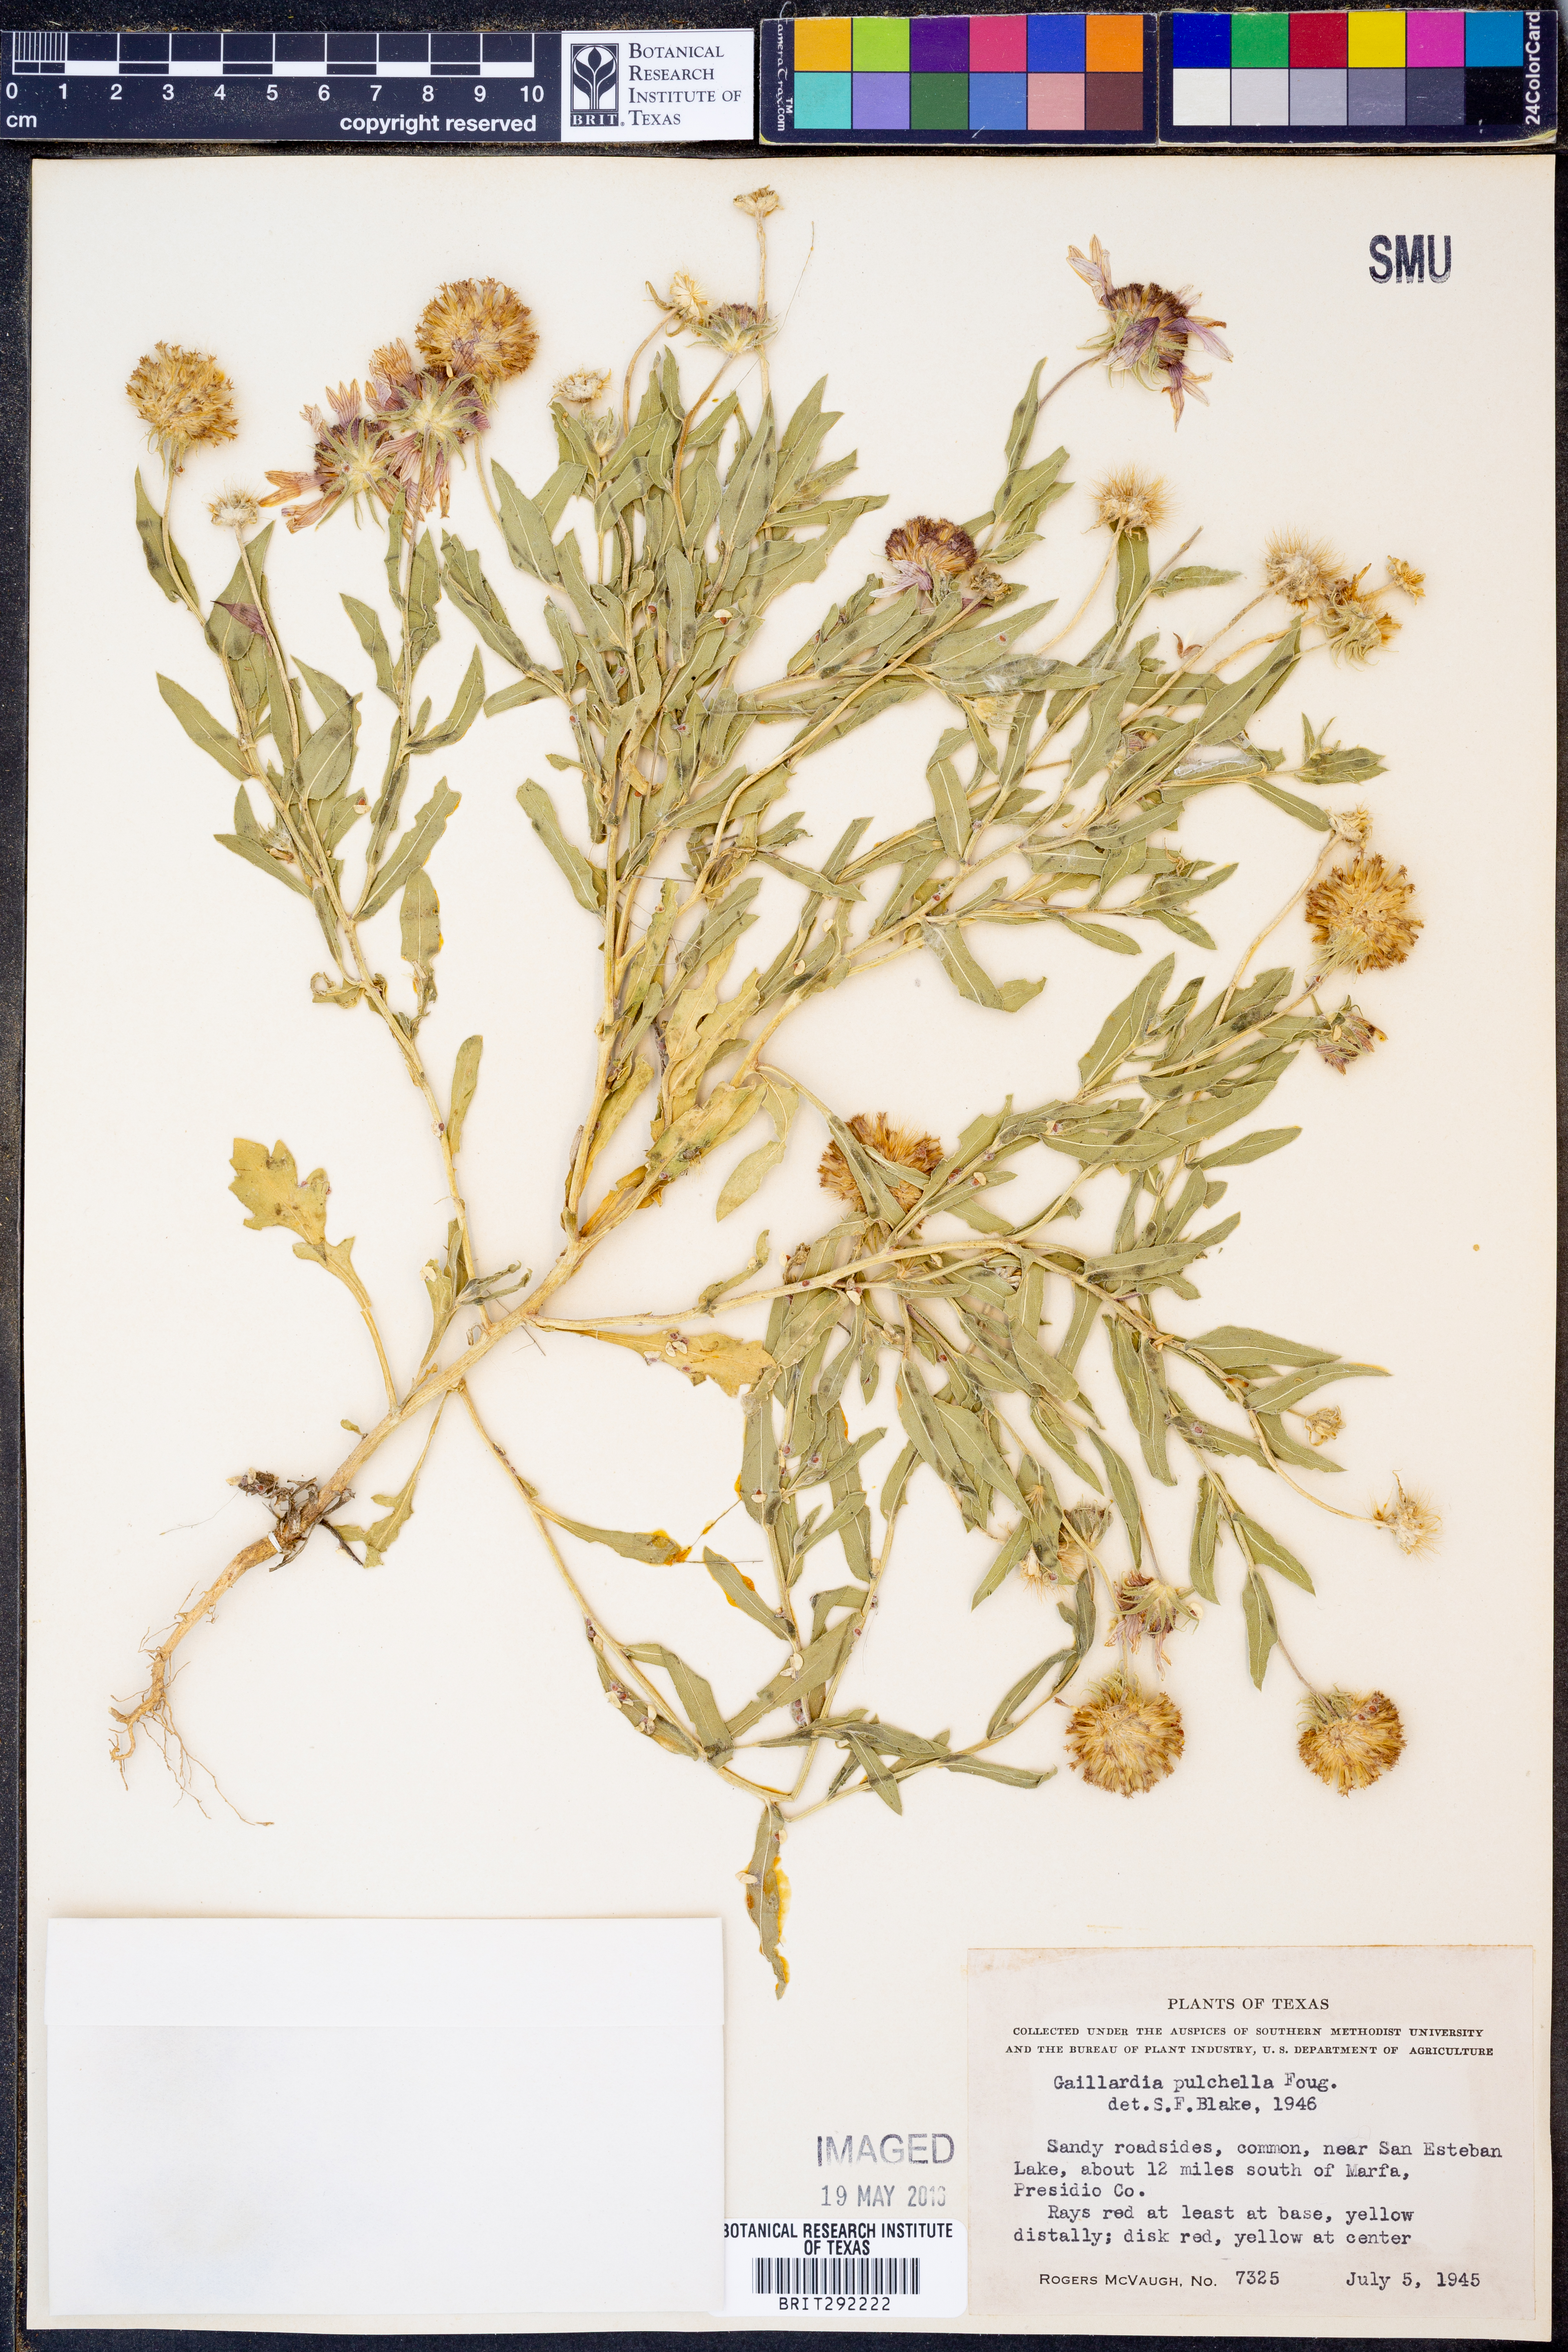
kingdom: Plantae
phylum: Tracheophyta
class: Magnoliopsida
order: Asterales
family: Asteraceae
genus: Gaillardia
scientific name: Gaillardia pulchella
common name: Firewheel
